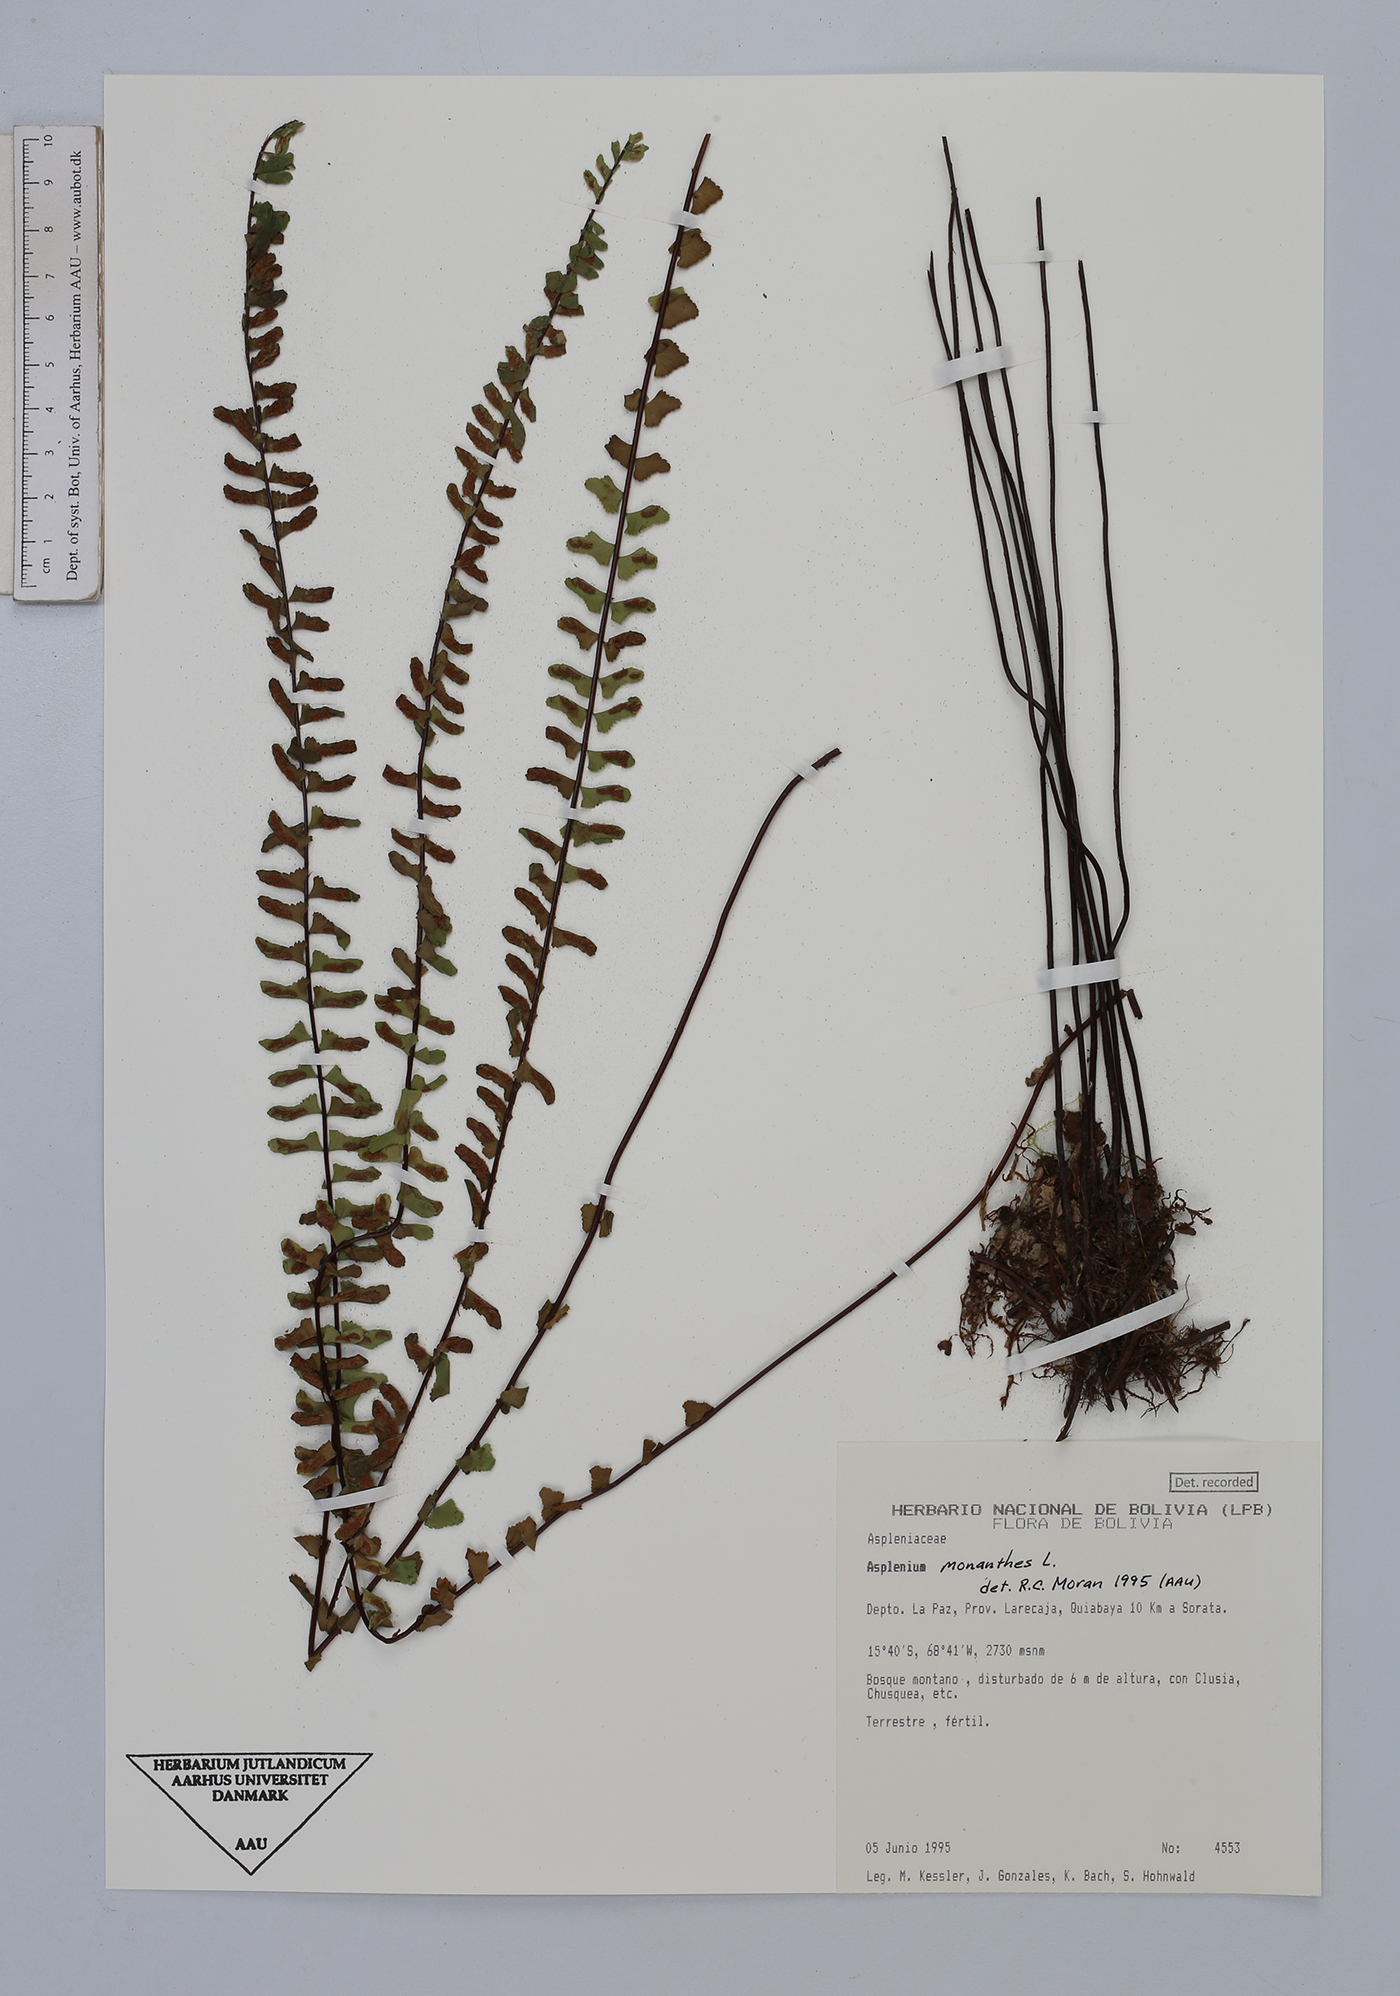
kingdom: Plantae
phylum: Tracheophyta
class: Polypodiopsida
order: Polypodiales
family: Aspleniaceae
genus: Asplenium
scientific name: Asplenium monanthes
